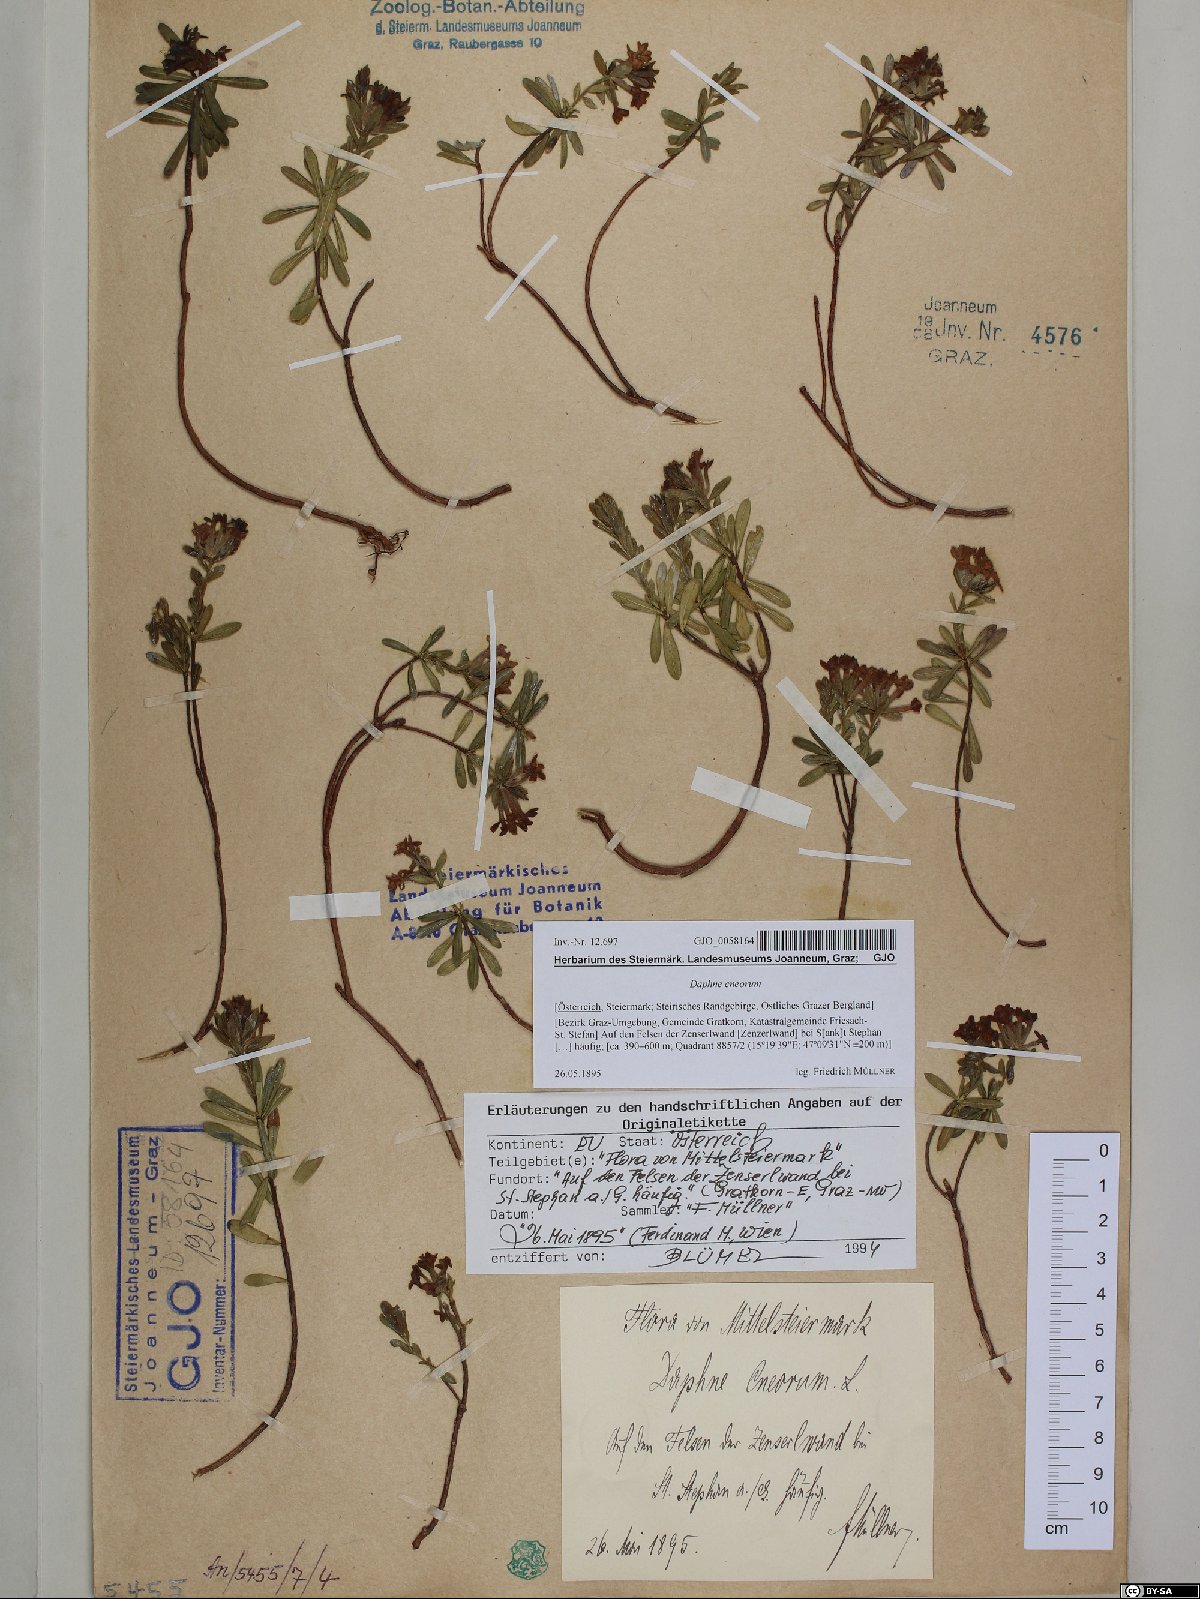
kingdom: Plantae
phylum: Tracheophyta
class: Magnoliopsida
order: Malvales
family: Thymelaeaceae
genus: Daphne
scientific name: Daphne cneorum
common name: Garland-flower
